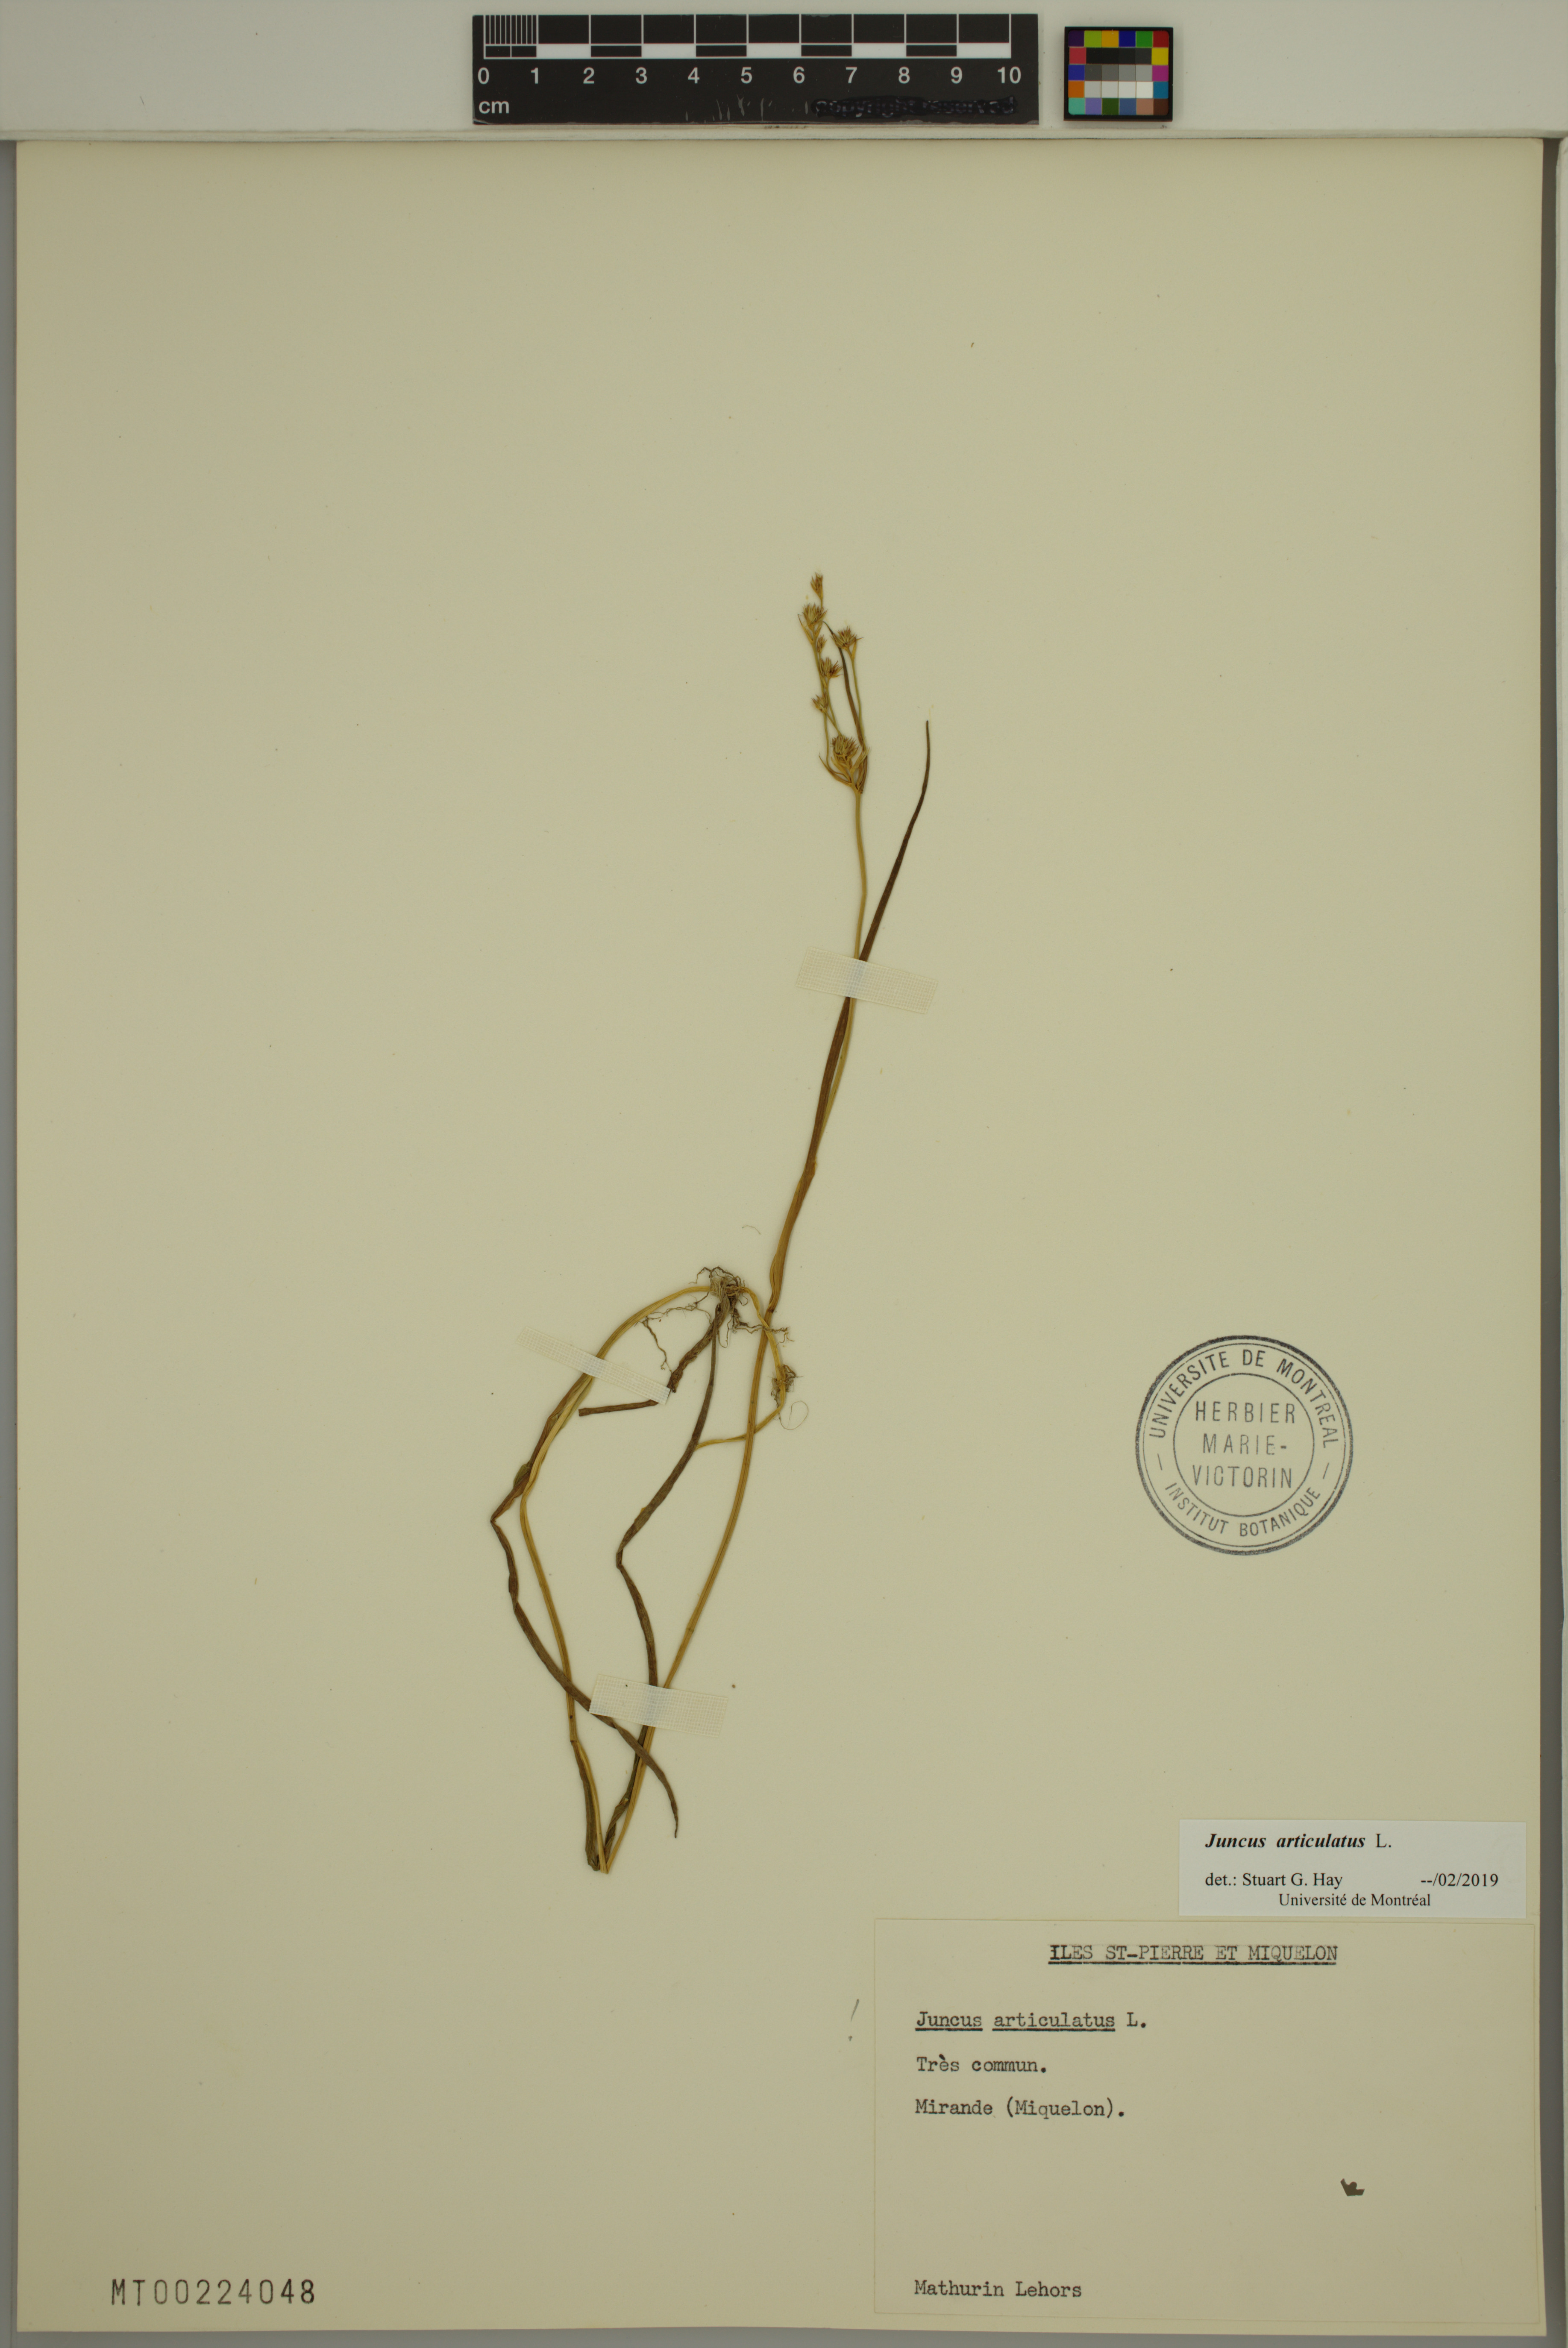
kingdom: Plantae
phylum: Tracheophyta
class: Liliopsida
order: Poales
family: Juncaceae
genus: Juncus
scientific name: Juncus articulatus
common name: Jointed rush
